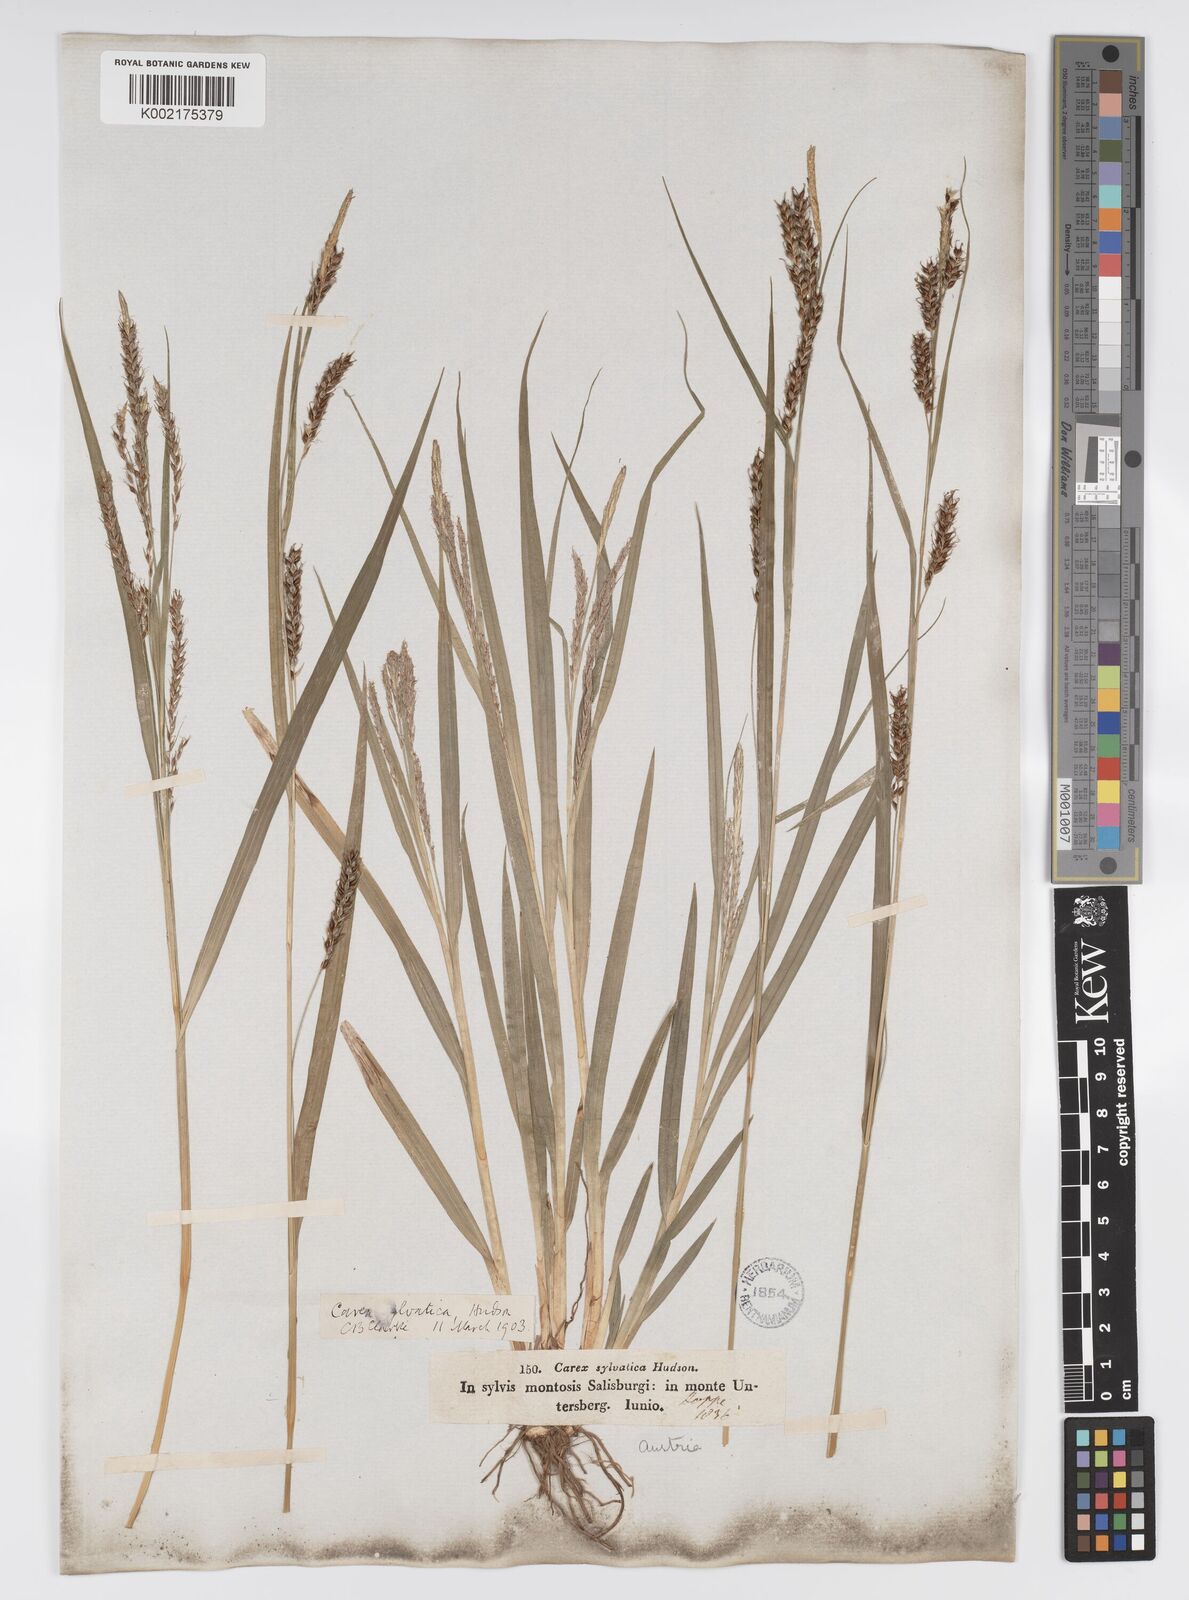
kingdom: Plantae
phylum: Tracheophyta
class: Liliopsida
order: Poales
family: Cyperaceae
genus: Carex
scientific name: Carex sylvatica
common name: Wood-sedge
